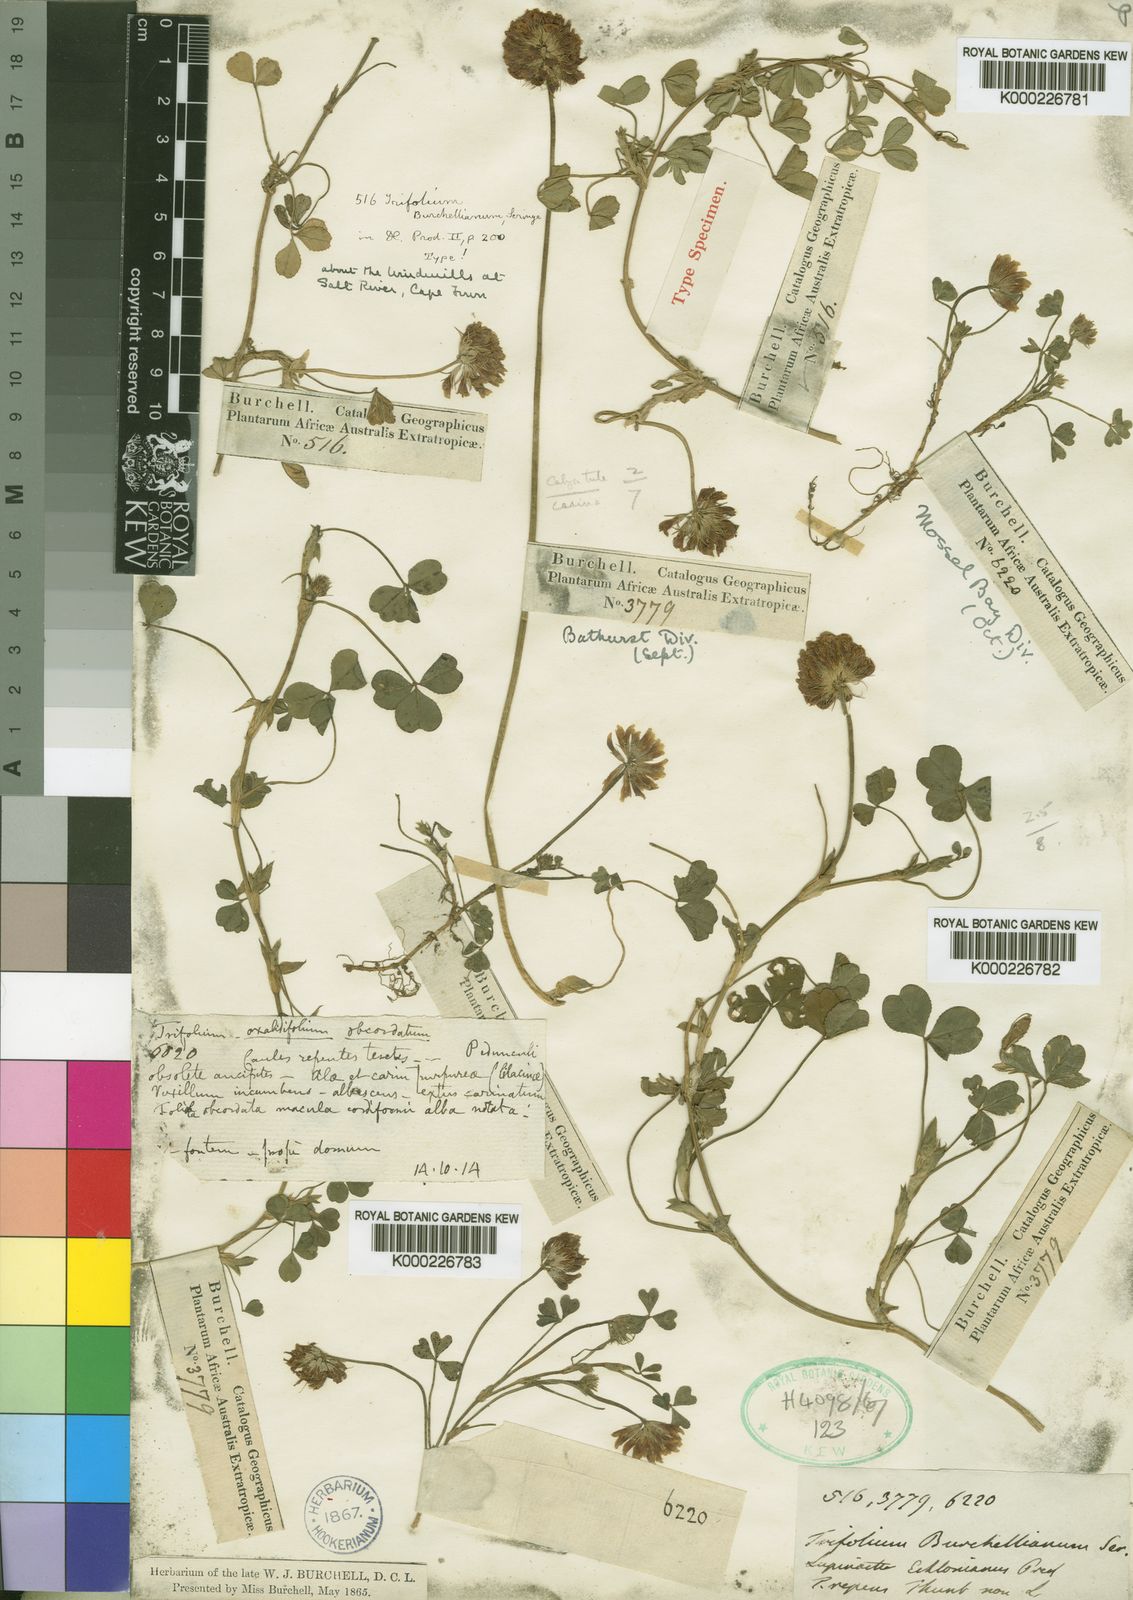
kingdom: Plantae
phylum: Tracheophyta
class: Magnoliopsida
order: Fabales
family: Fabaceae
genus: Trifolium
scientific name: Trifolium burchellianum
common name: Burchell's clover
